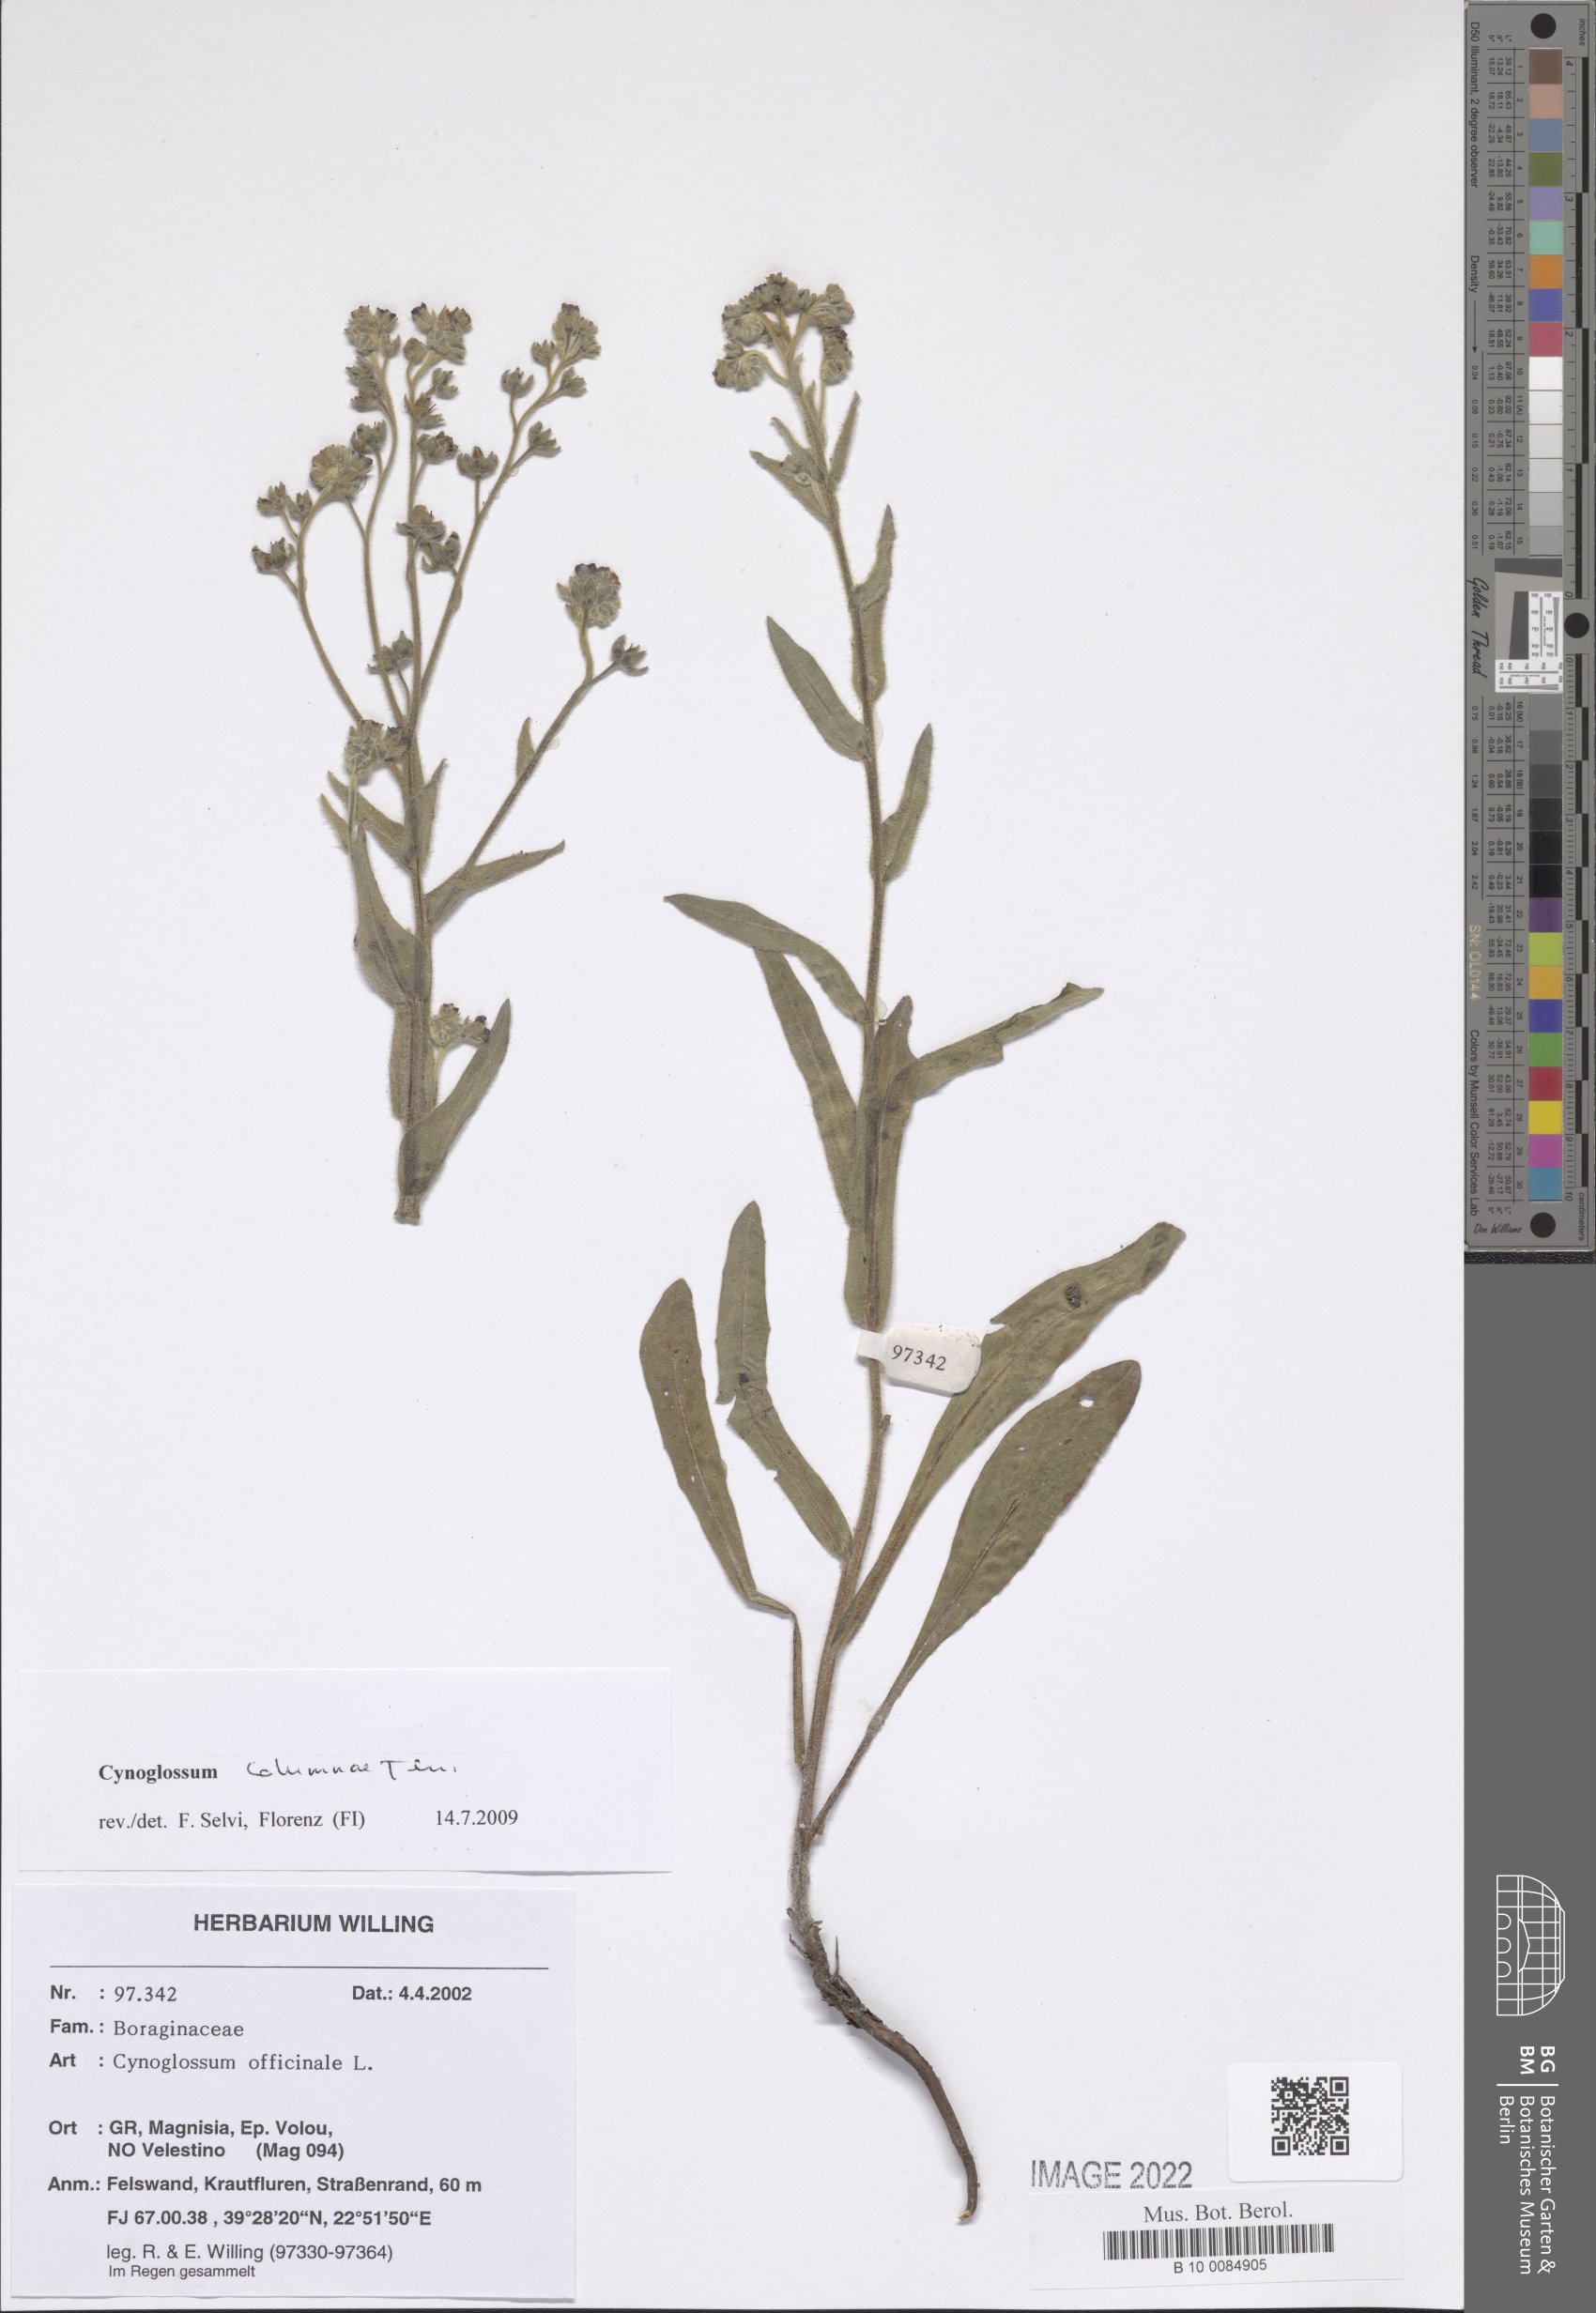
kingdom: Plantae
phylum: Tracheophyta
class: Magnoliopsida
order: Boraginales
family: Boraginaceae
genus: Rindera
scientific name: Rindera columnae
